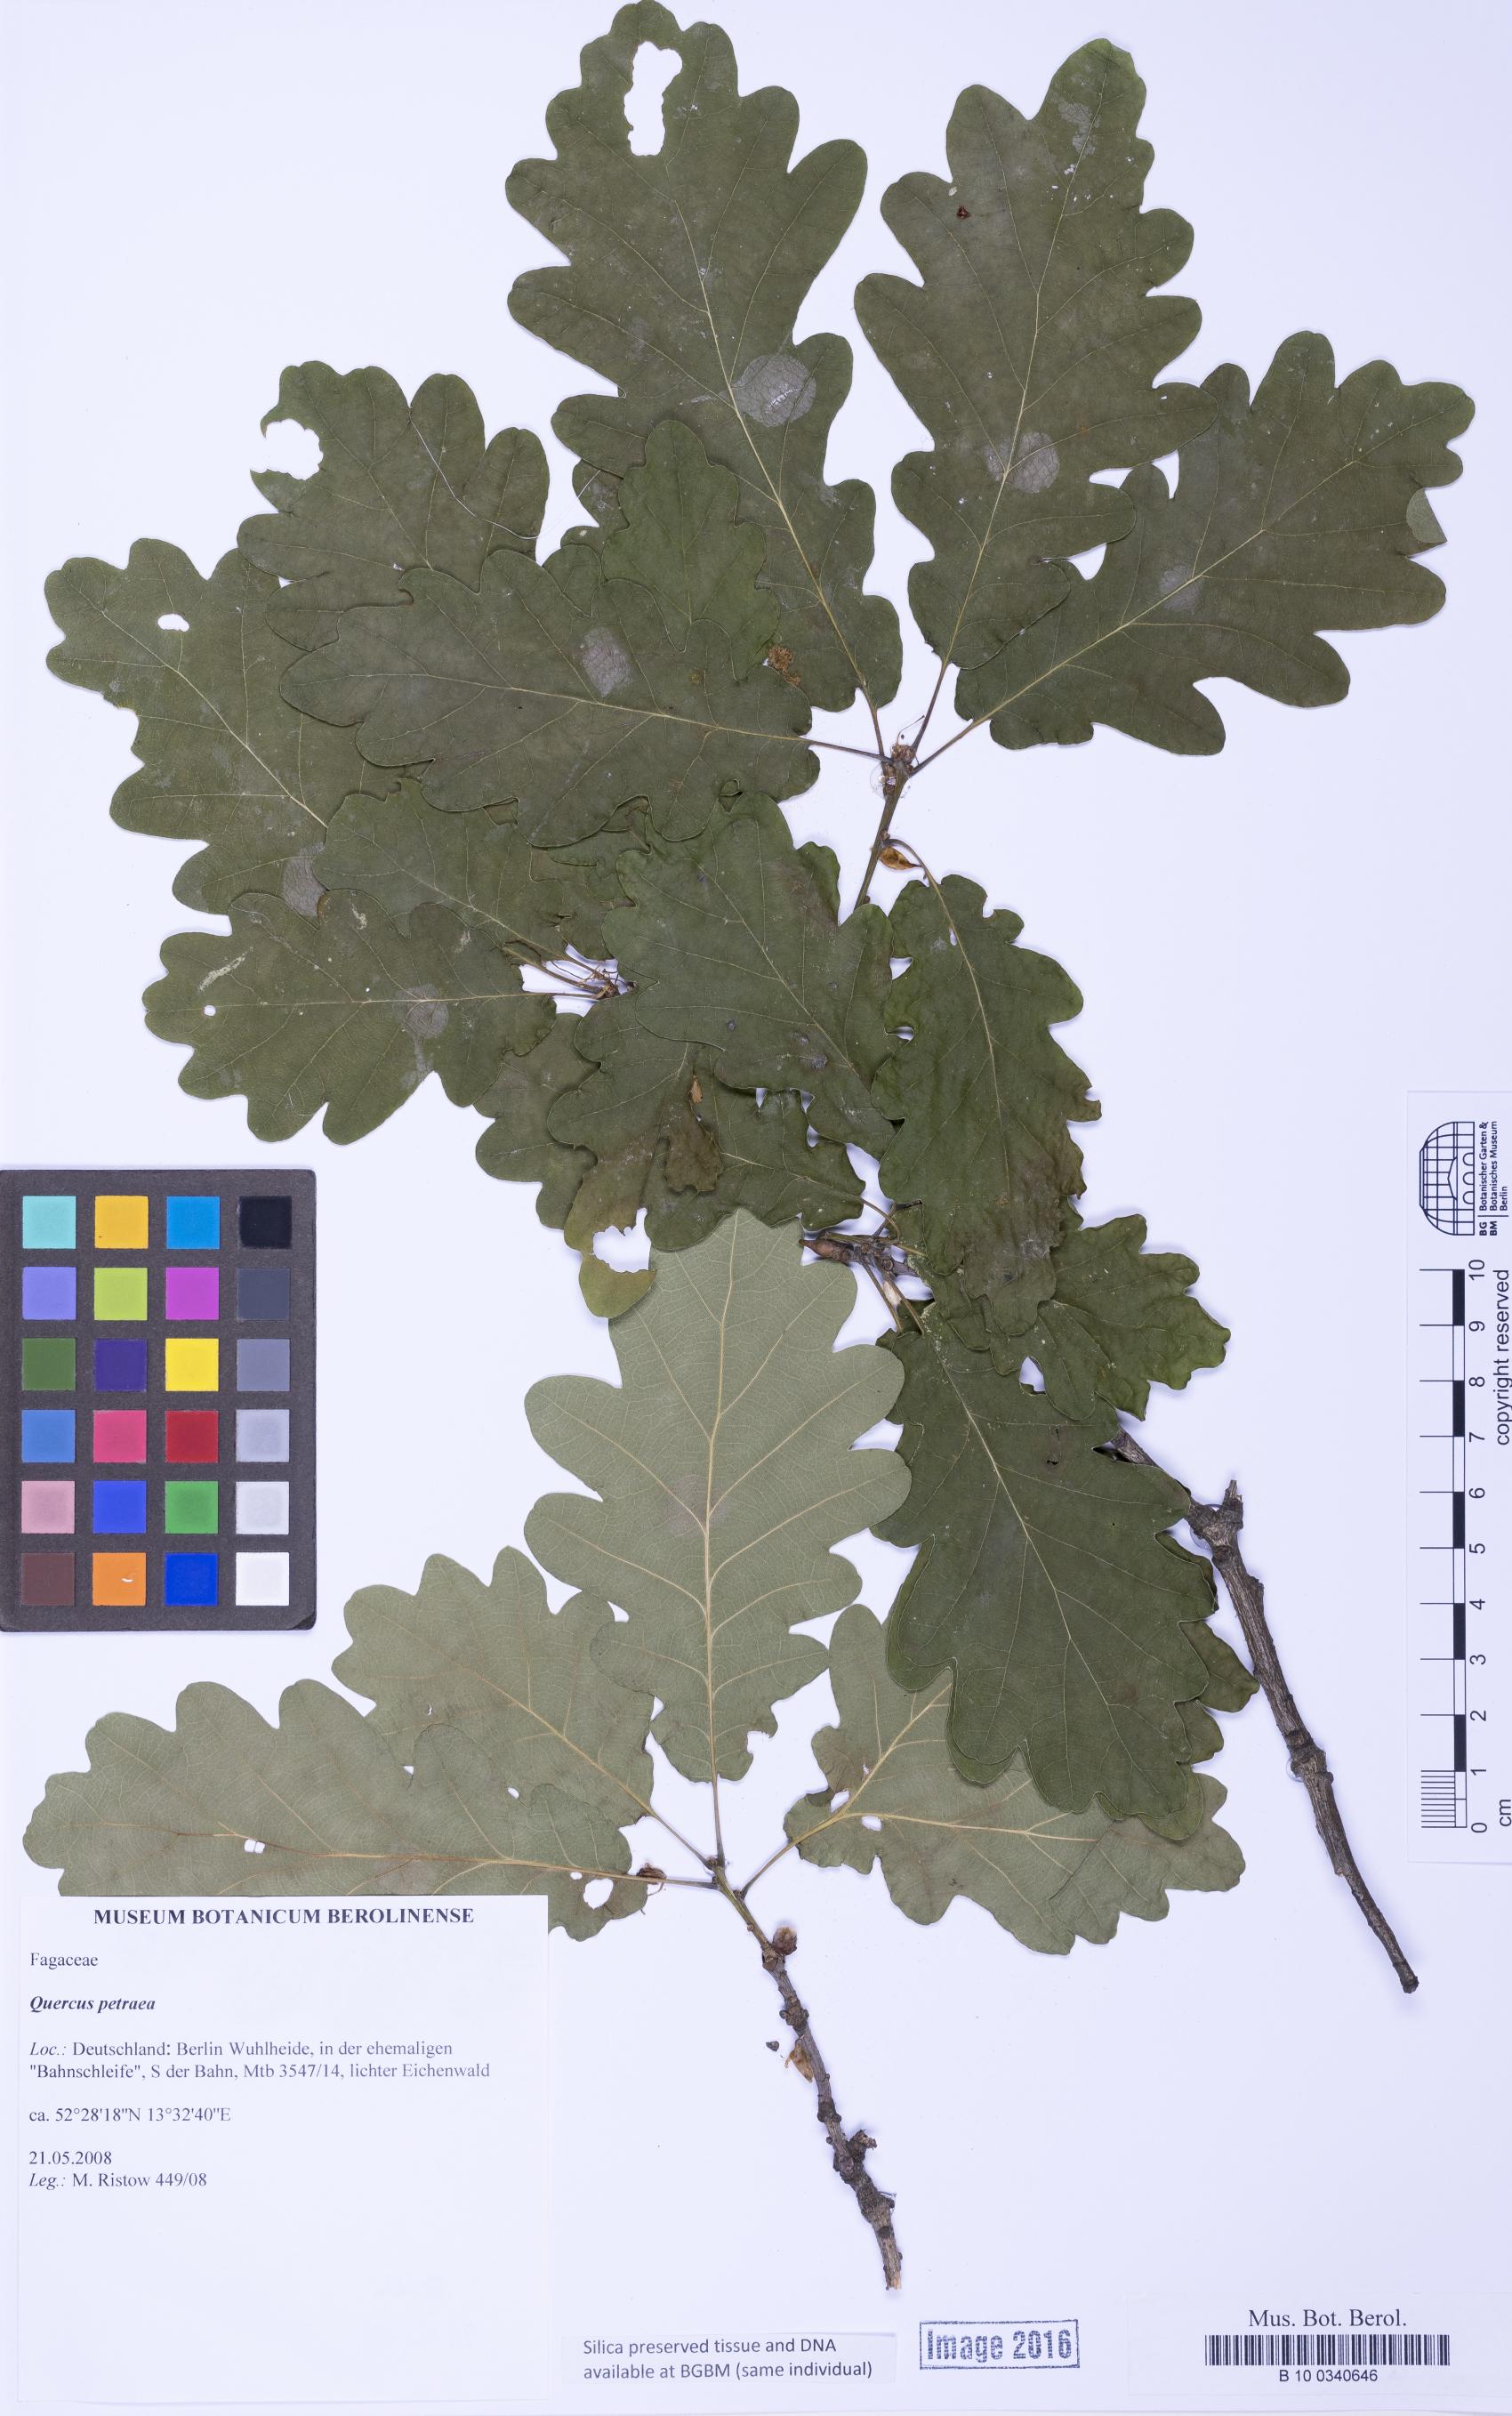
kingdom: Plantae
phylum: Tracheophyta
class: Magnoliopsida
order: Fagales
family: Fagaceae
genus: Quercus
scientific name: Quercus petraea
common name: Sessile oak
